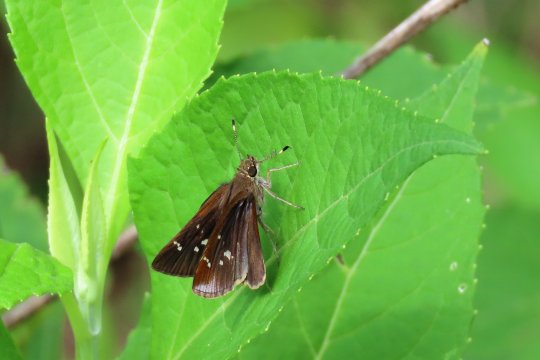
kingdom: Animalia
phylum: Arthropoda
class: Insecta
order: Lepidoptera
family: Hesperiidae
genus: Lerema
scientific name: Lerema accius
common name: Clouded Skipper
